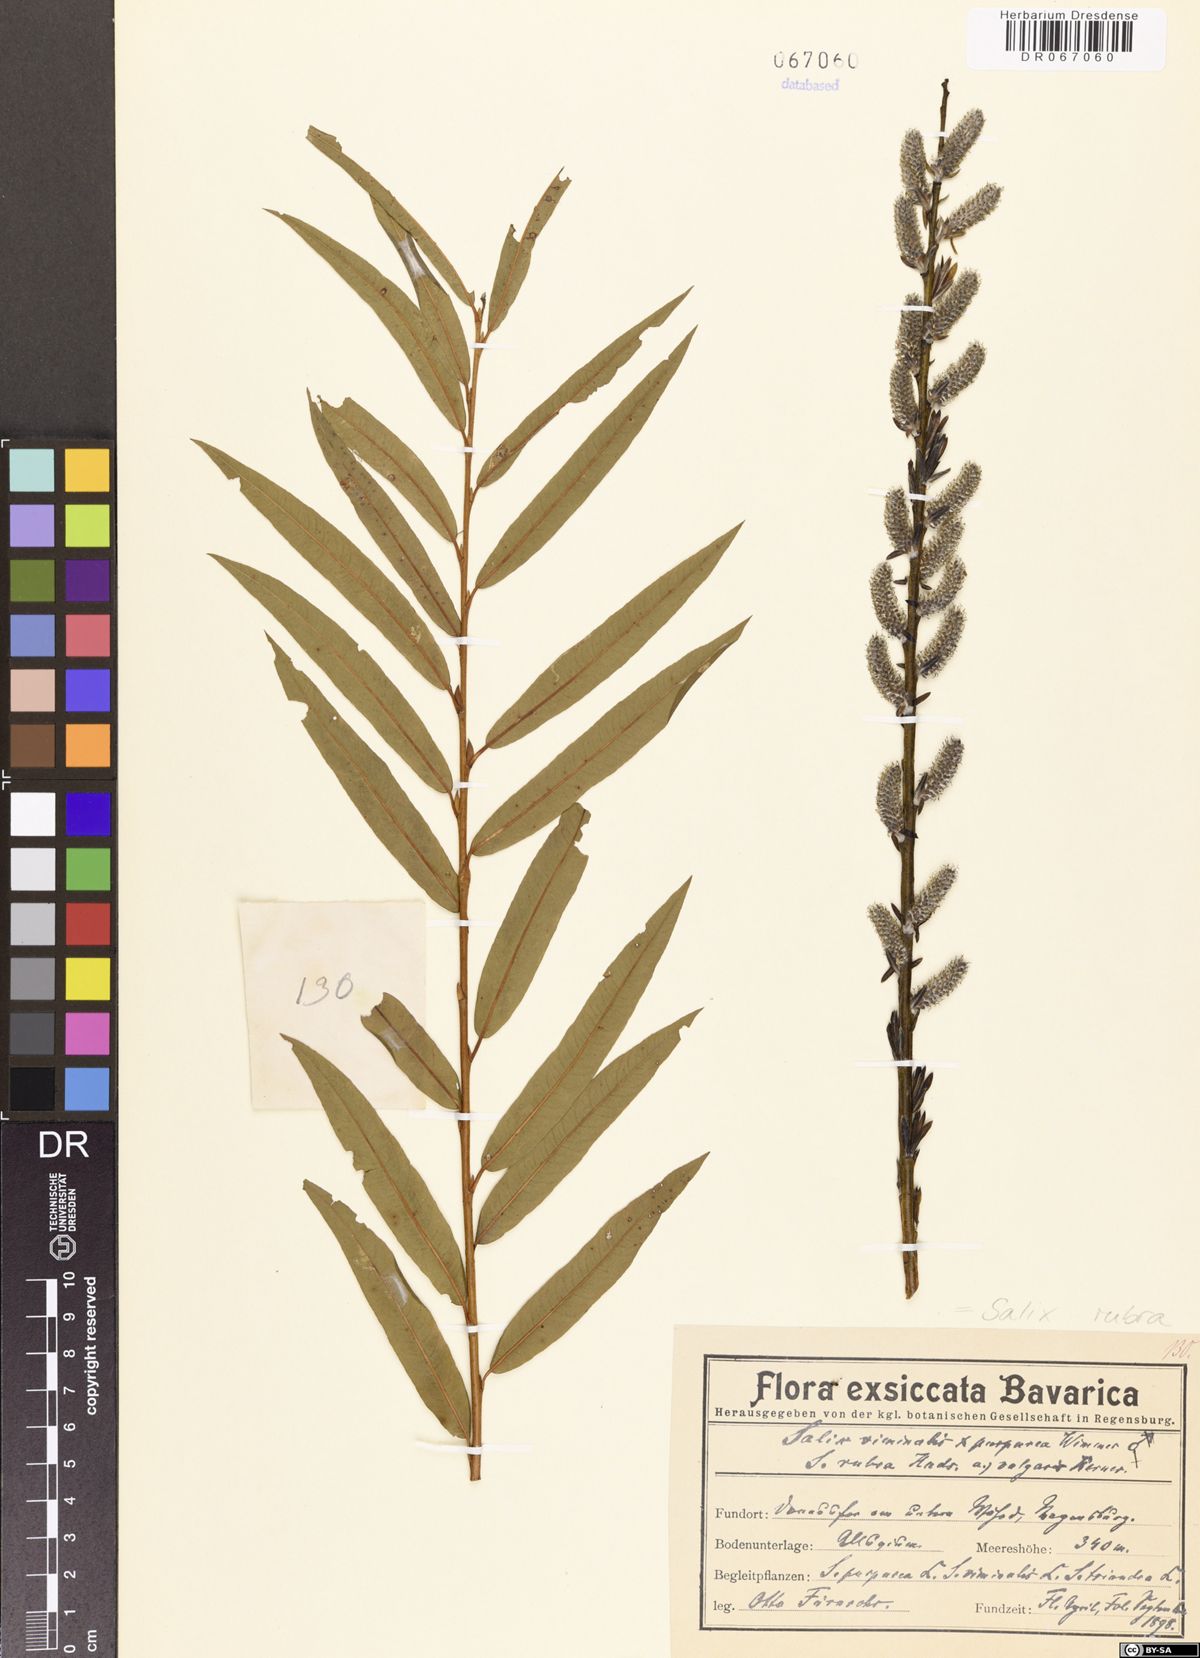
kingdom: Plantae
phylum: Tracheophyta
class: Magnoliopsida
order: Malpighiales
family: Salicaceae
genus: Salix
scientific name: Salix rubra
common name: Green-leaf willow
